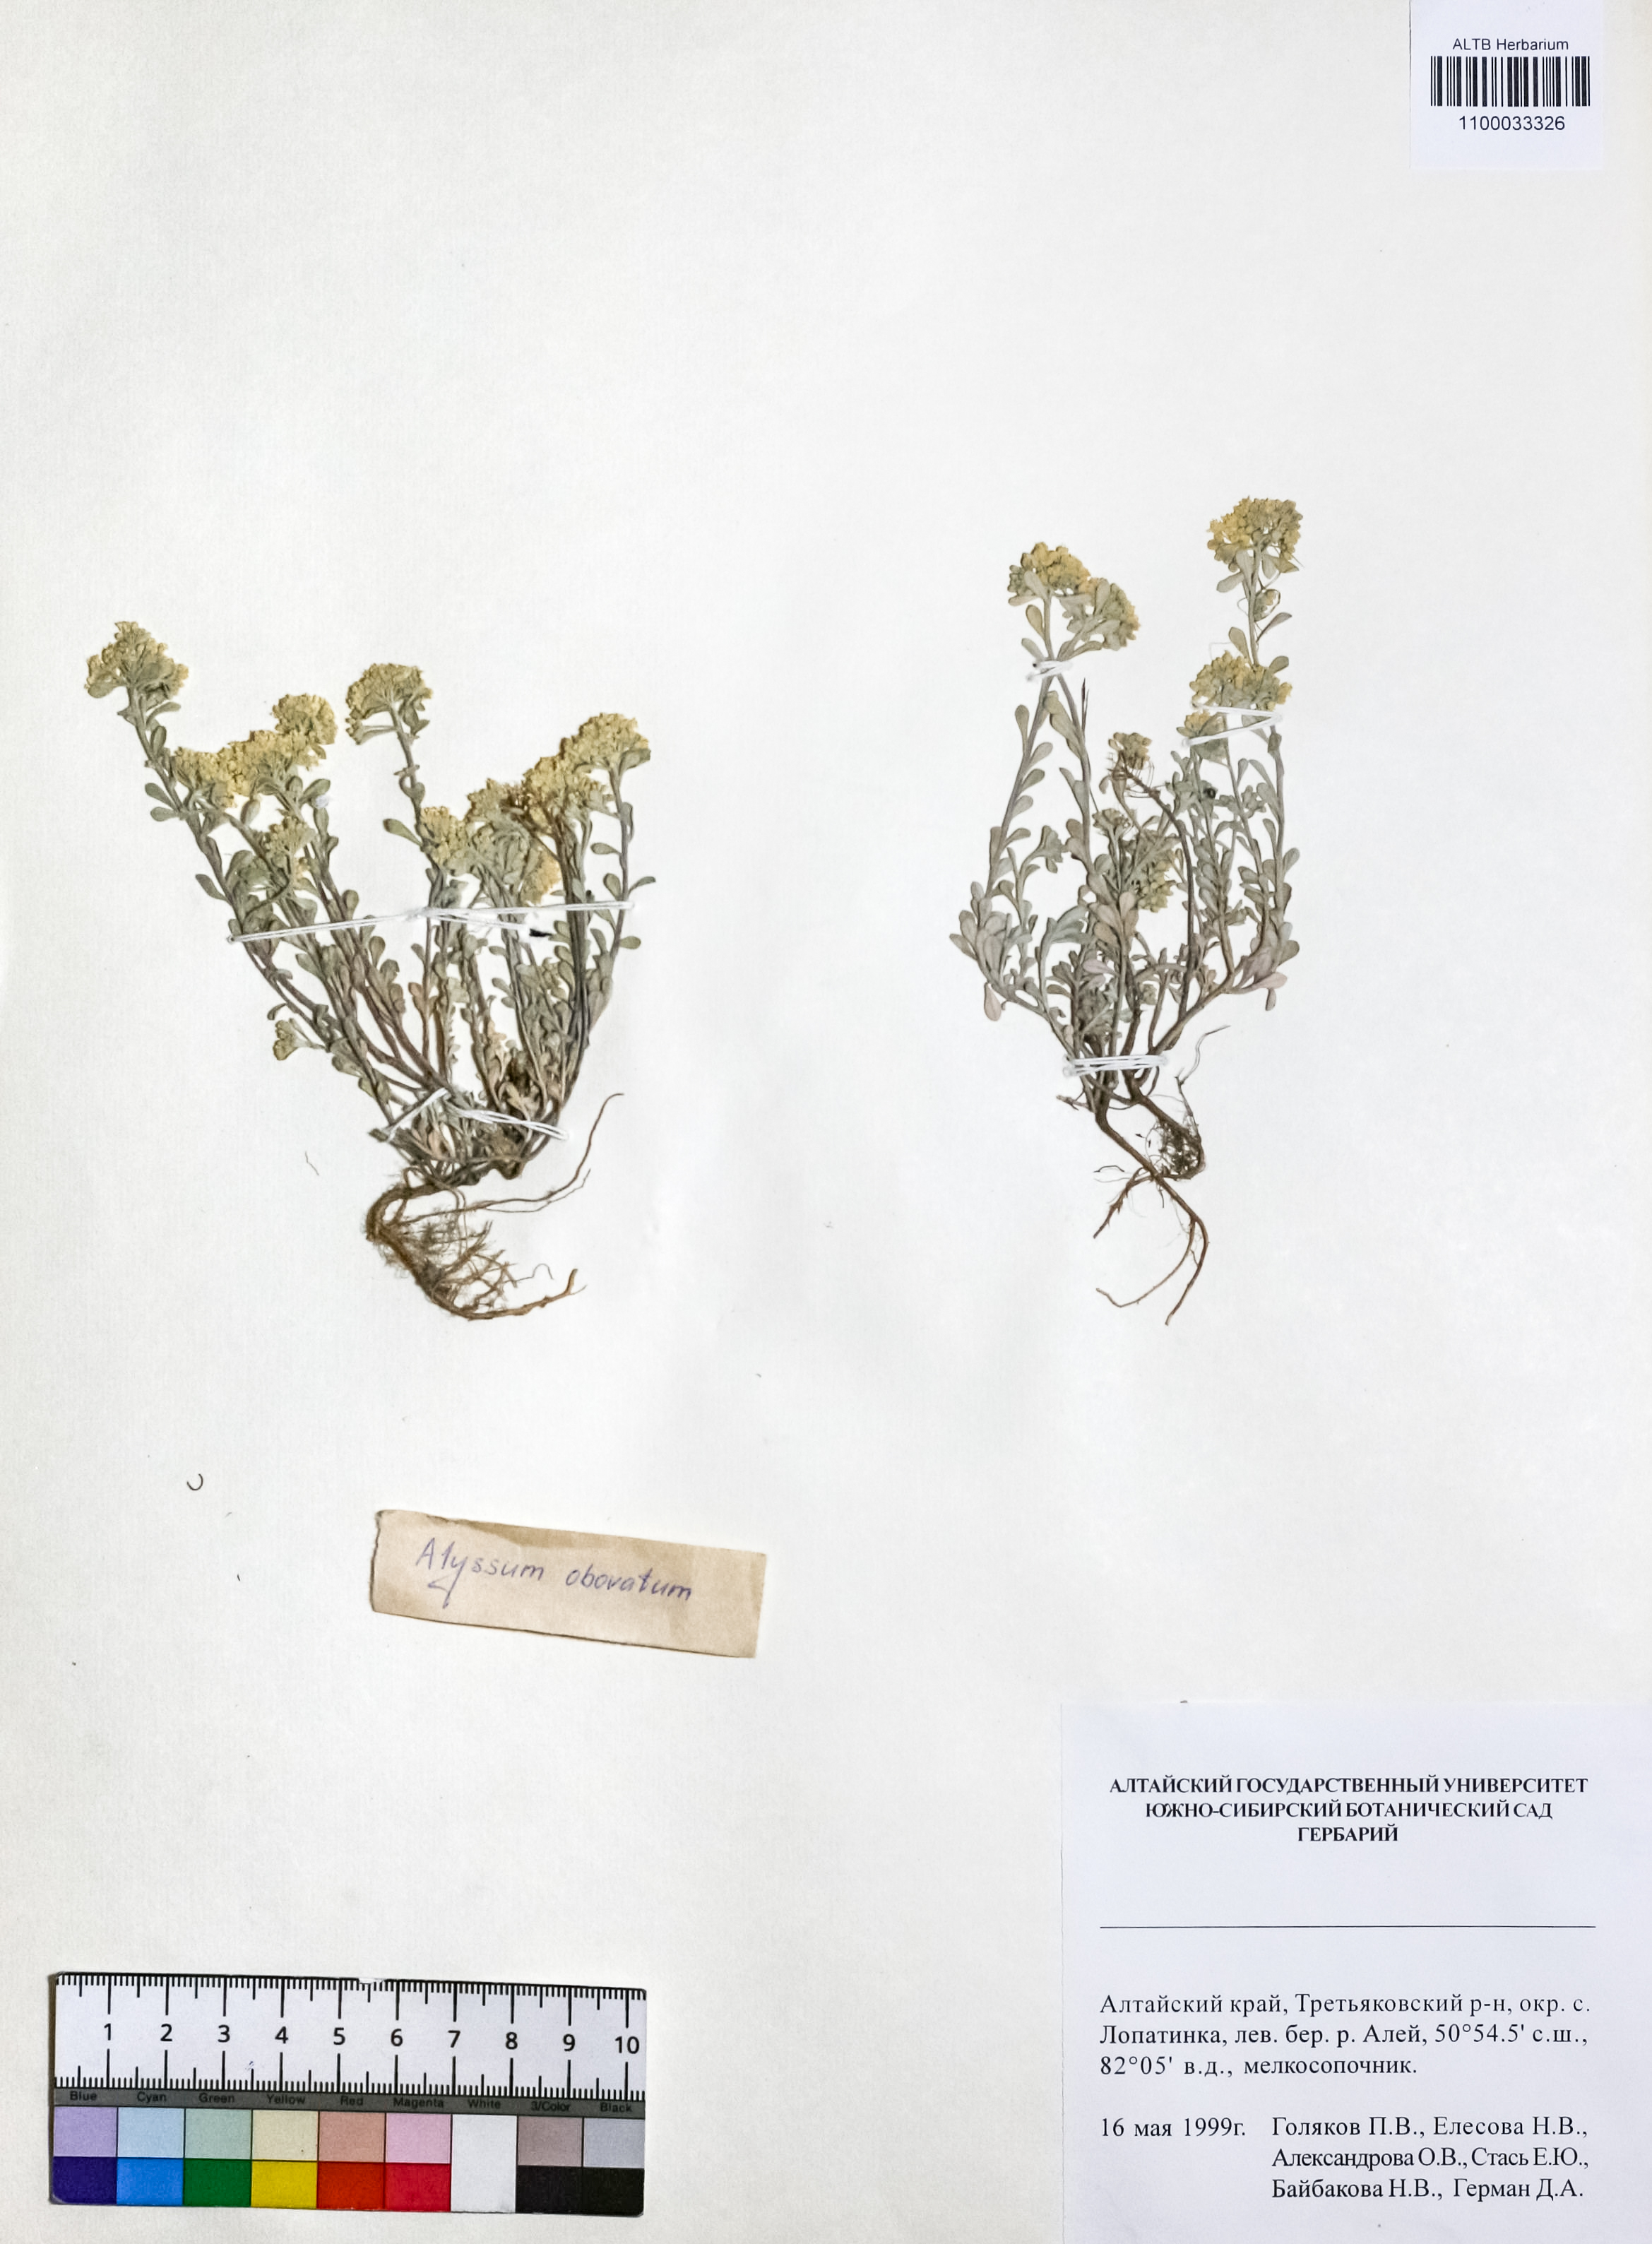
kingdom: Plantae
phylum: Tracheophyta
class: Magnoliopsida
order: Brassicales
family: Brassicaceae
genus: Odontarrhena
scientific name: Odontarrhena obovata
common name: American alyssum
